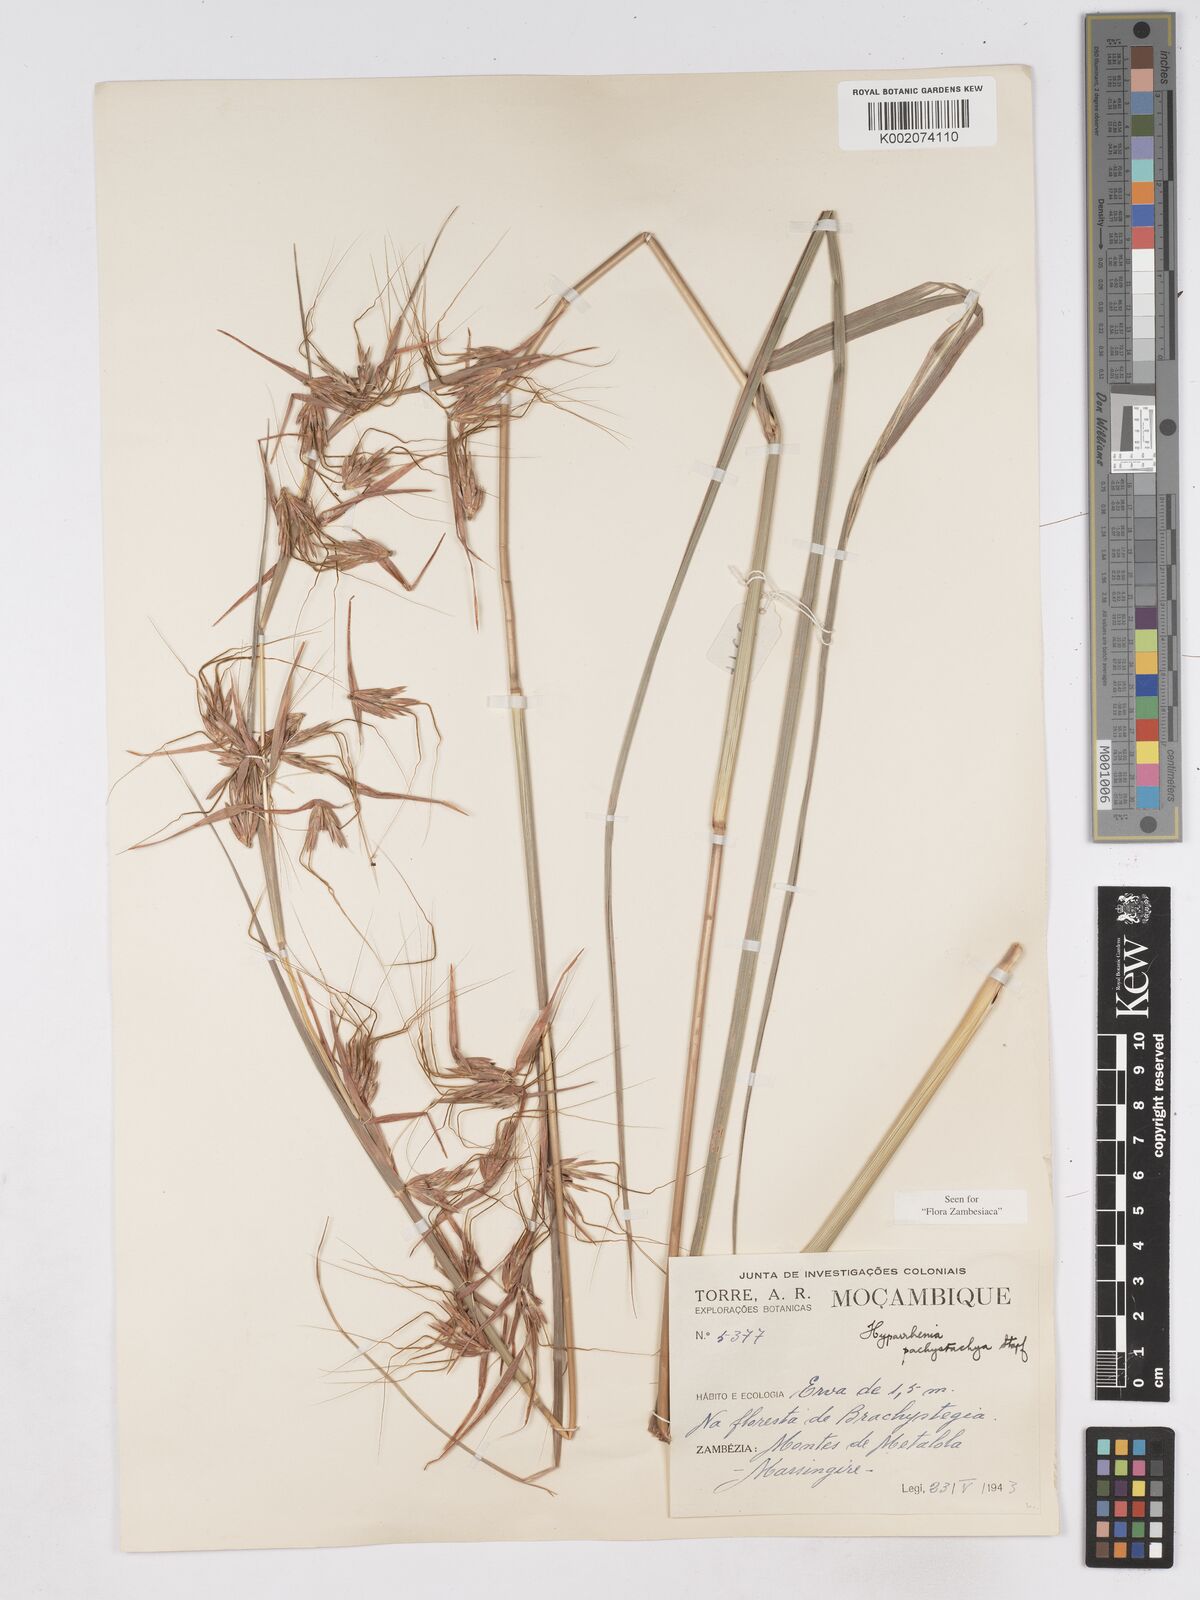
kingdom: Plantae
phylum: Tracheophyta
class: Liliopsida
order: Poales
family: Poaceae
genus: Hyparrhenia
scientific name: Hyparrhenia diplandra
